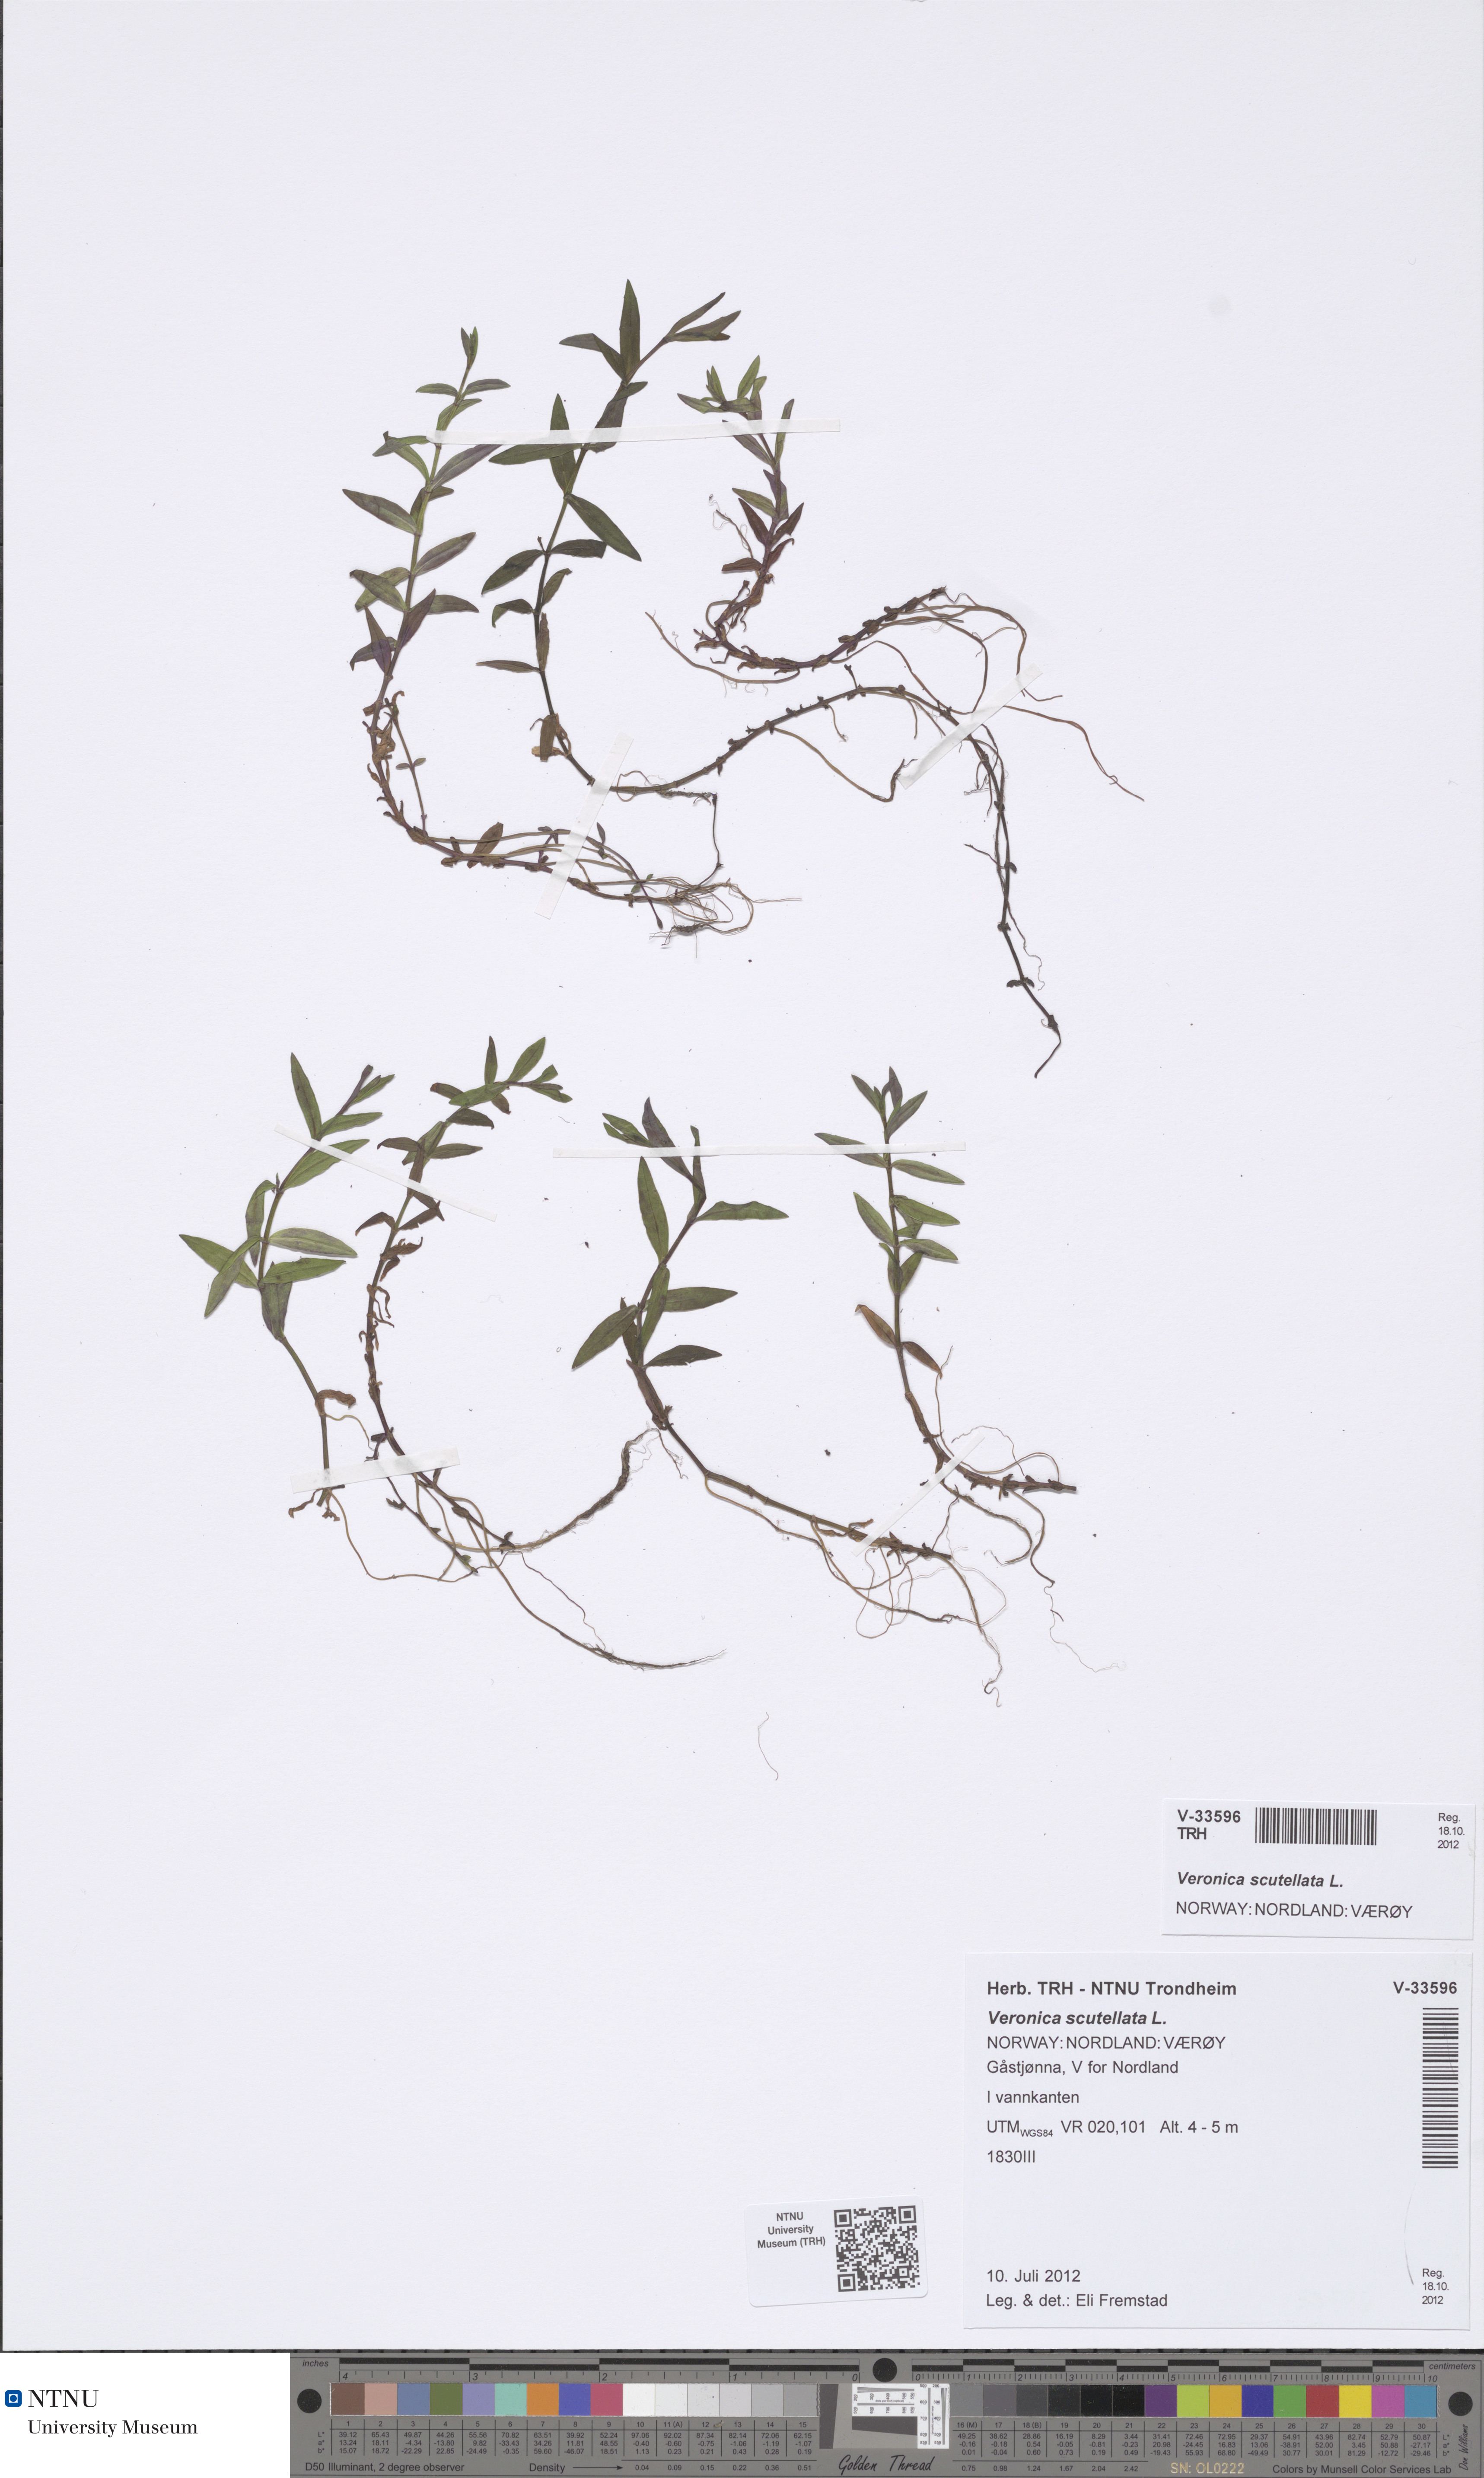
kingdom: Plantae
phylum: Tracheophyta
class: Magnoliopsida
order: Lamiales
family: Plantaginaceae
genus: Veronica
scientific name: Veronica scutellata
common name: Marsh speedwell
